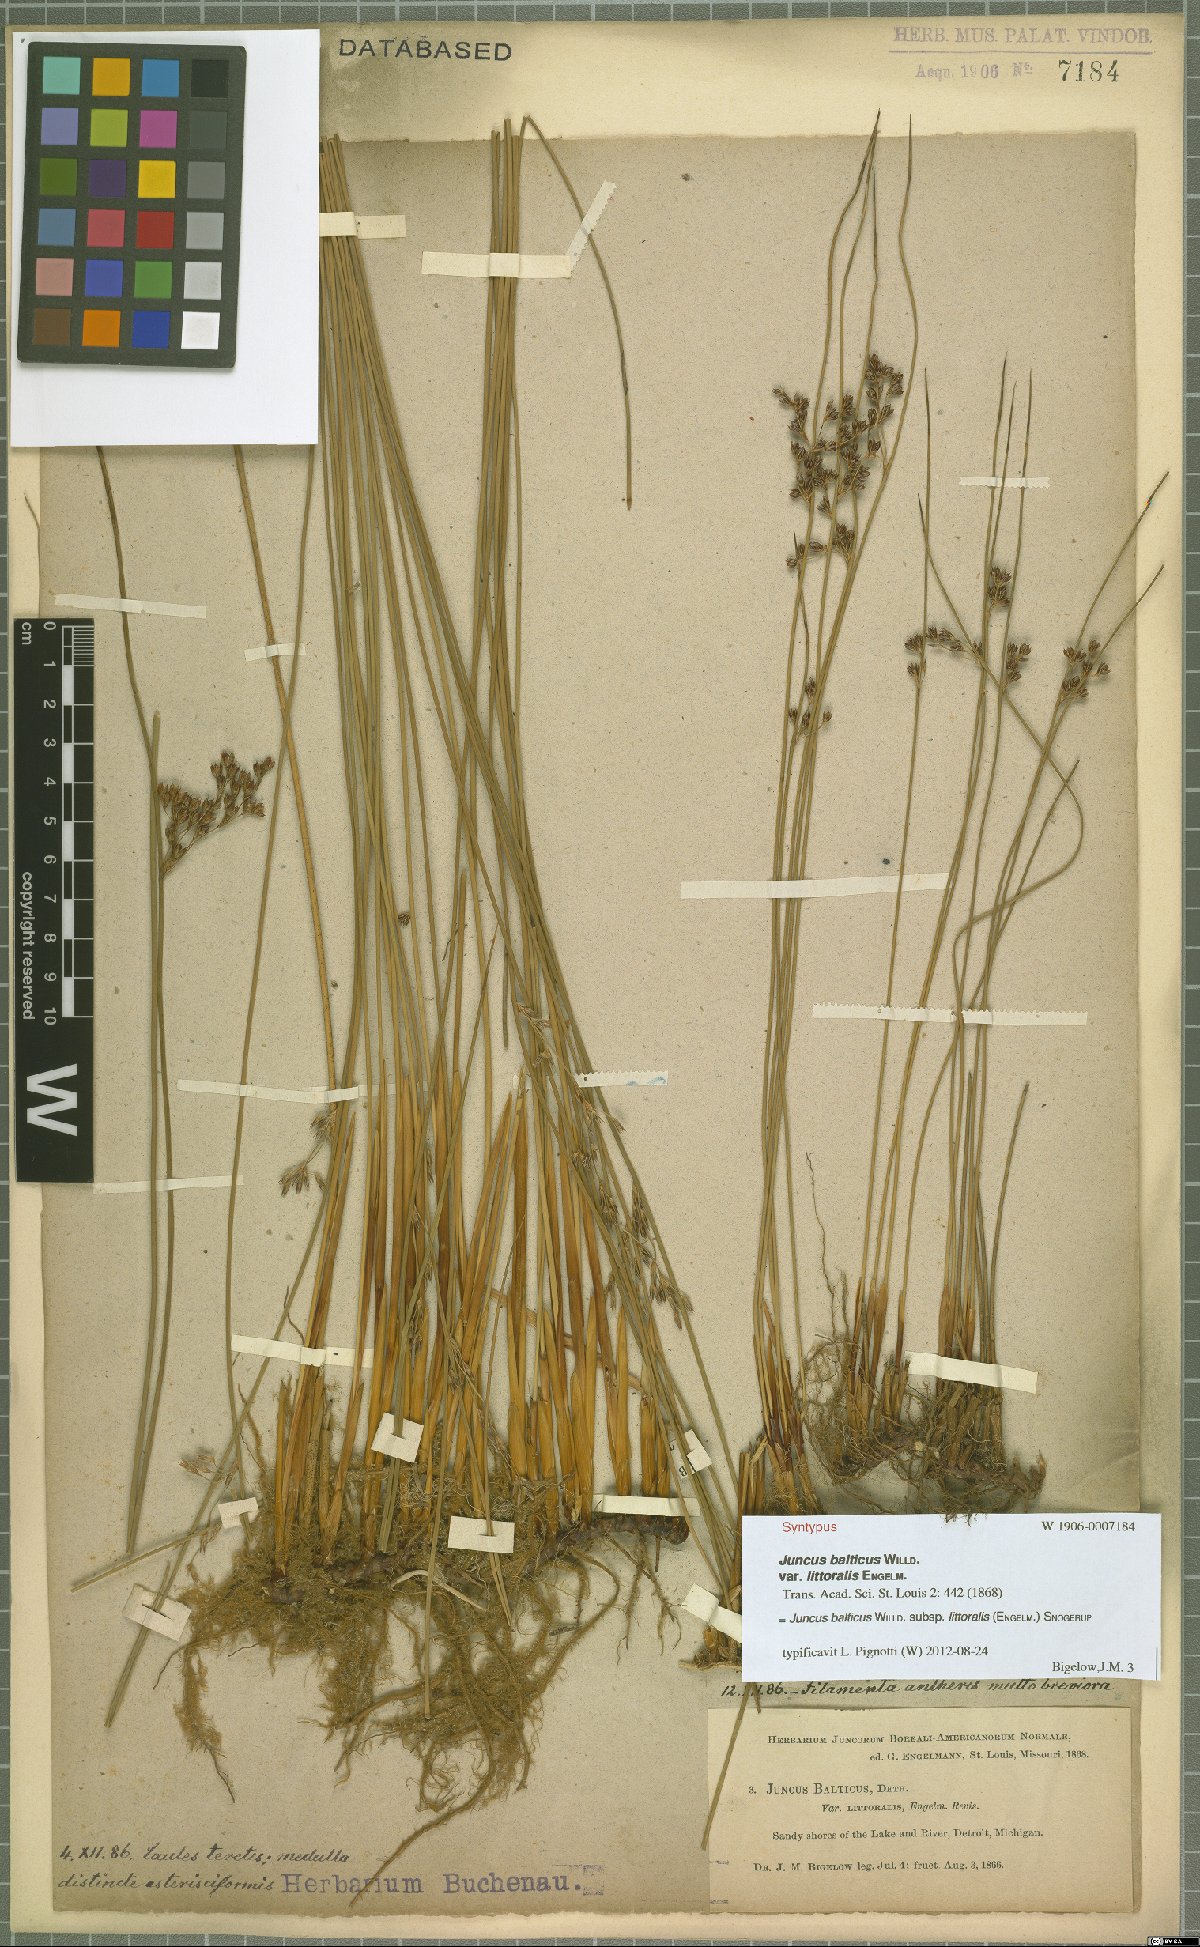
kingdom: Plantae
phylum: Tracheophyta
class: Liliopsida
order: Poales
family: Juncaceae
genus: Juncus
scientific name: Juncus balticus
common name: Baltic rush
